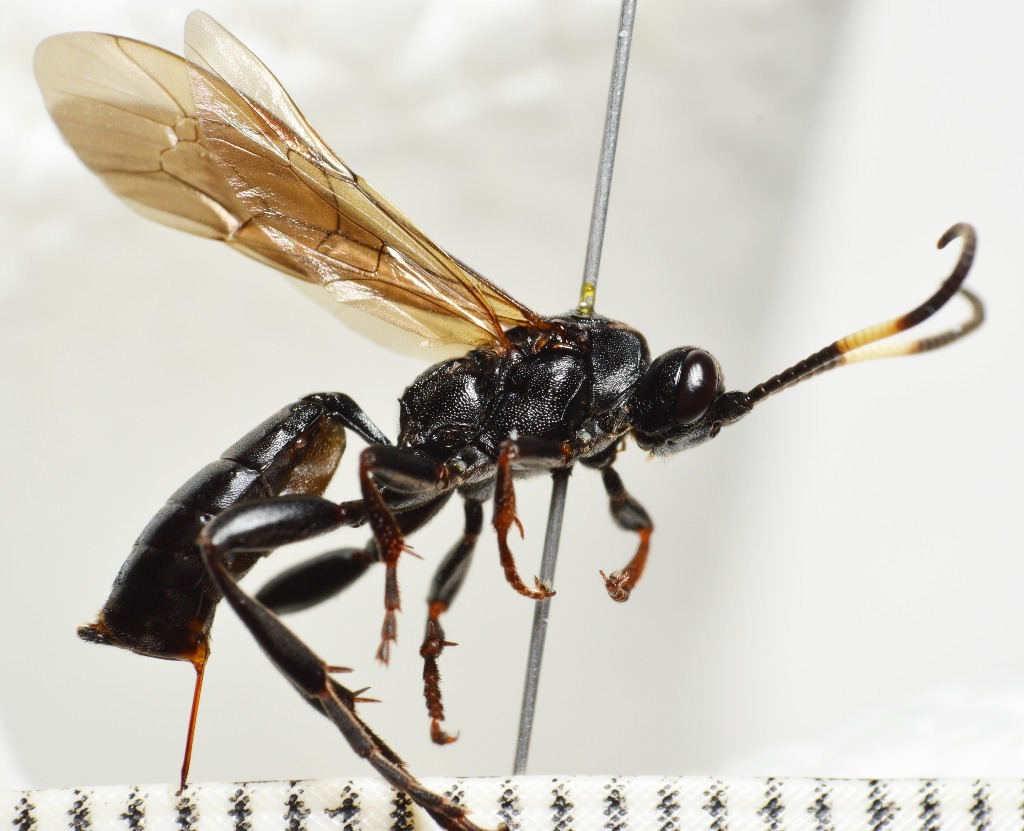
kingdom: Animalia
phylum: Arthropoda
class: Insecta
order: Hymenoptera
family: Ichneumonidae
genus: Cratichneumon
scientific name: Cratichneumon luteiventris
